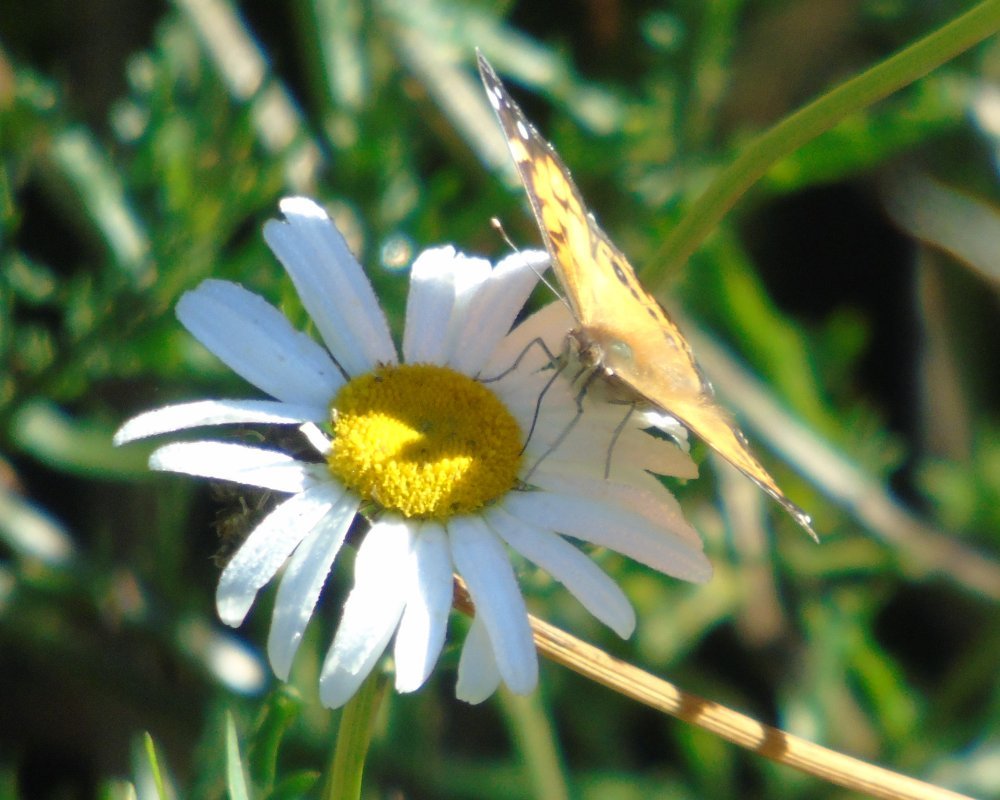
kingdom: Animalia
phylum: Arthropoda
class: Insecta
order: Lepidoptera
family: Nymphalidae
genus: Vanessa
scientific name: Vanessa virginiensis
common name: American Lady
